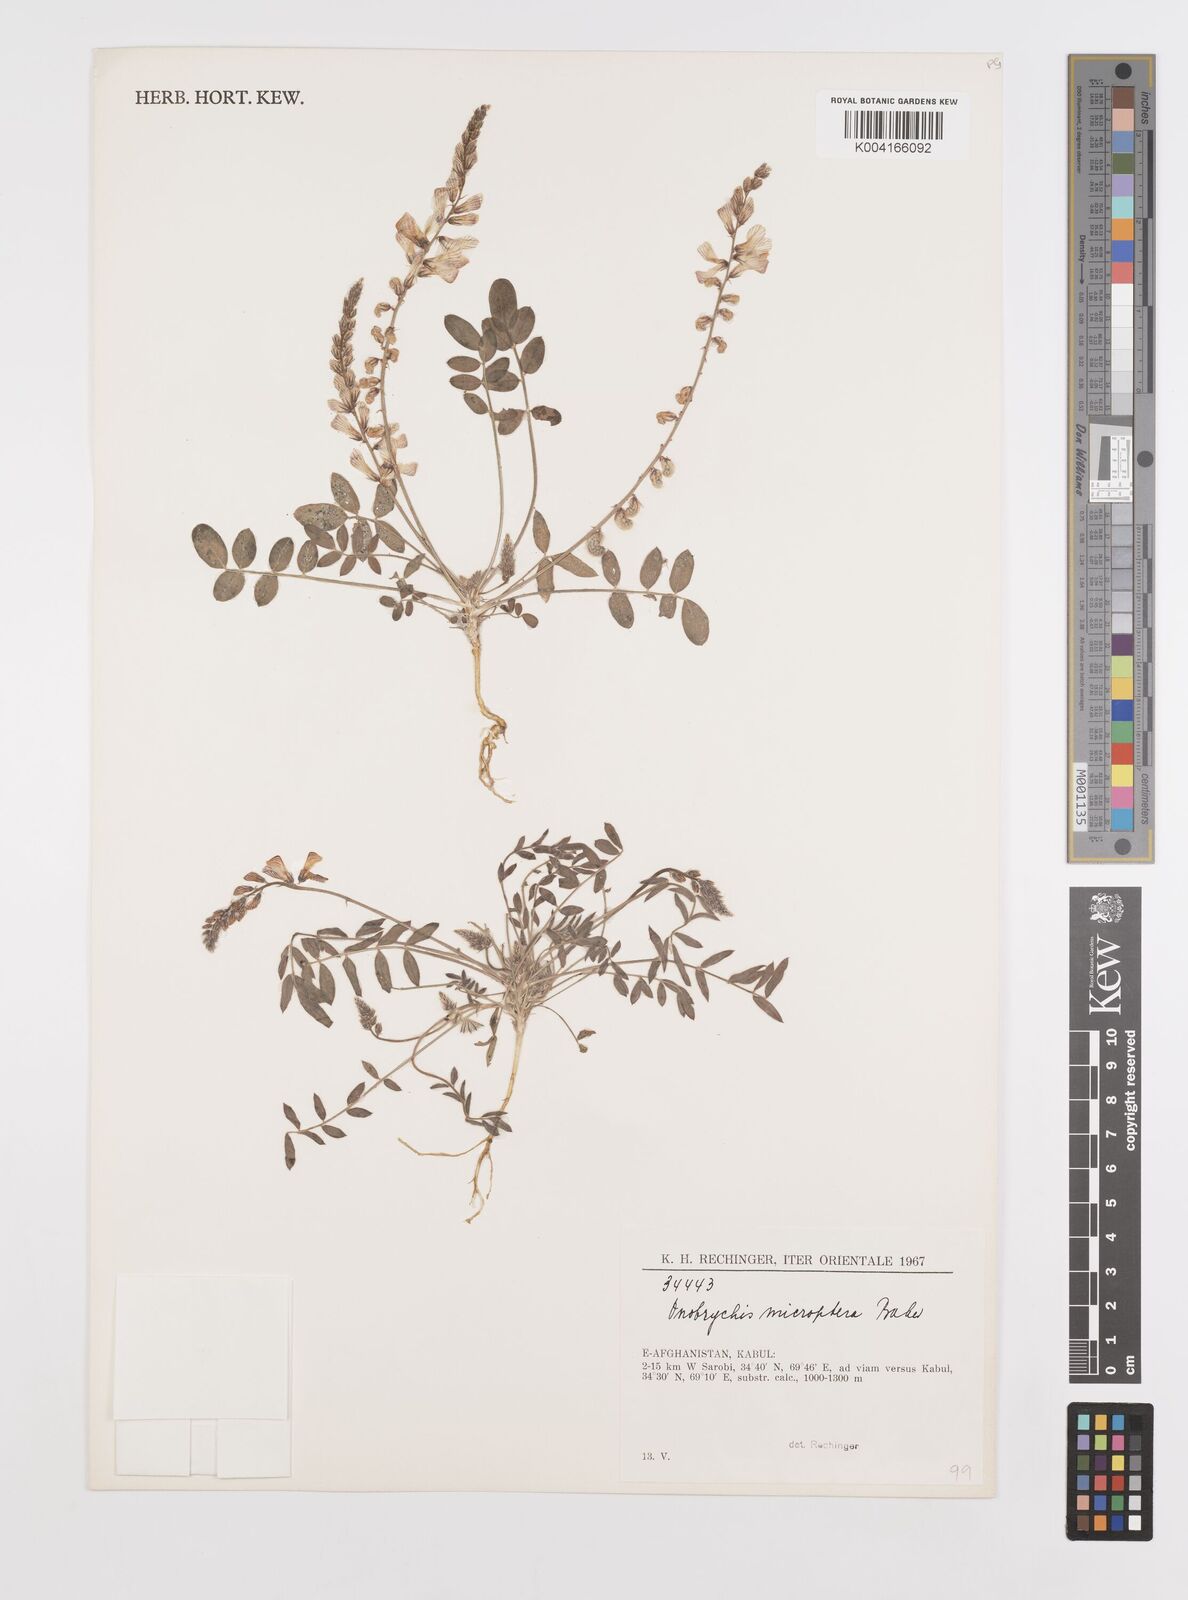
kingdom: Plantae
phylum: Tracheophyta
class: Magnoliopsida
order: Fabales
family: Fabaceae
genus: Onobrychis
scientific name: Onobrychis microptera
